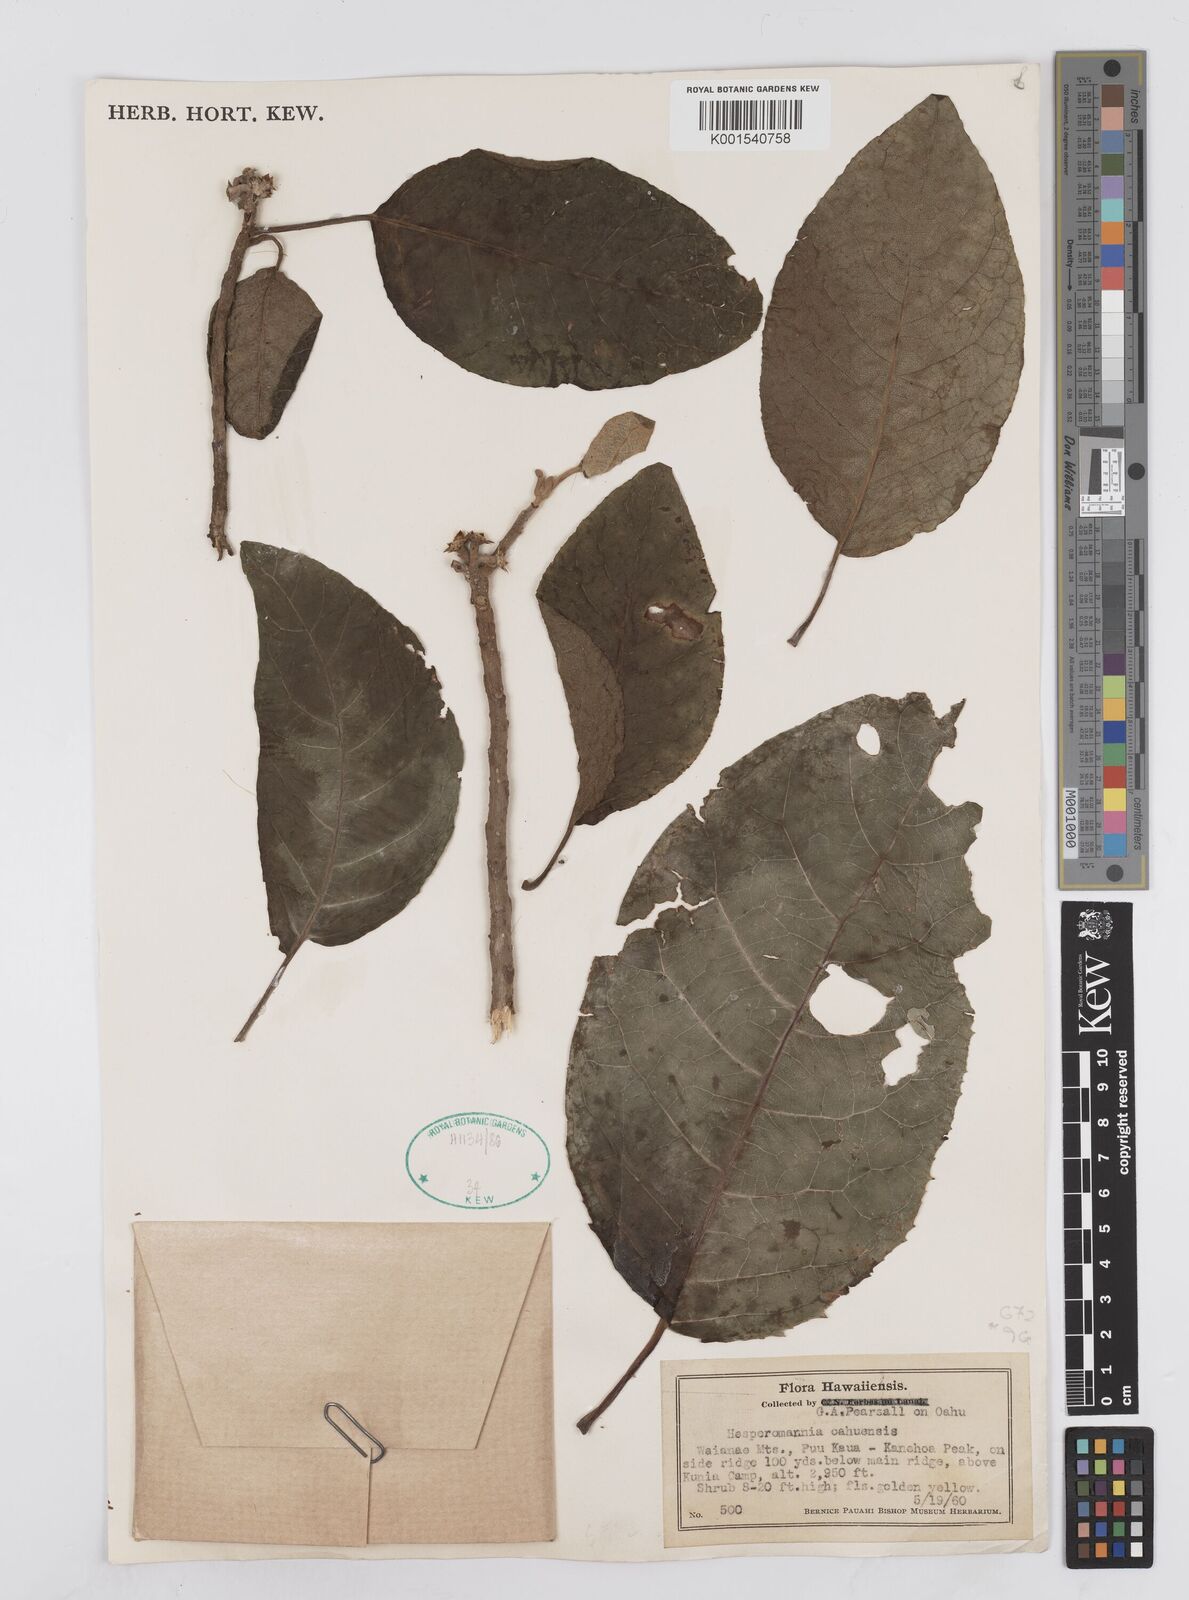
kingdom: Plantae
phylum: Tracheophyta
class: Magnoliopsida
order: Asterales
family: Asteraceae
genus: Hesperomannia
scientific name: Hesperomannia arbuscula
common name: Maui hesperomannia
